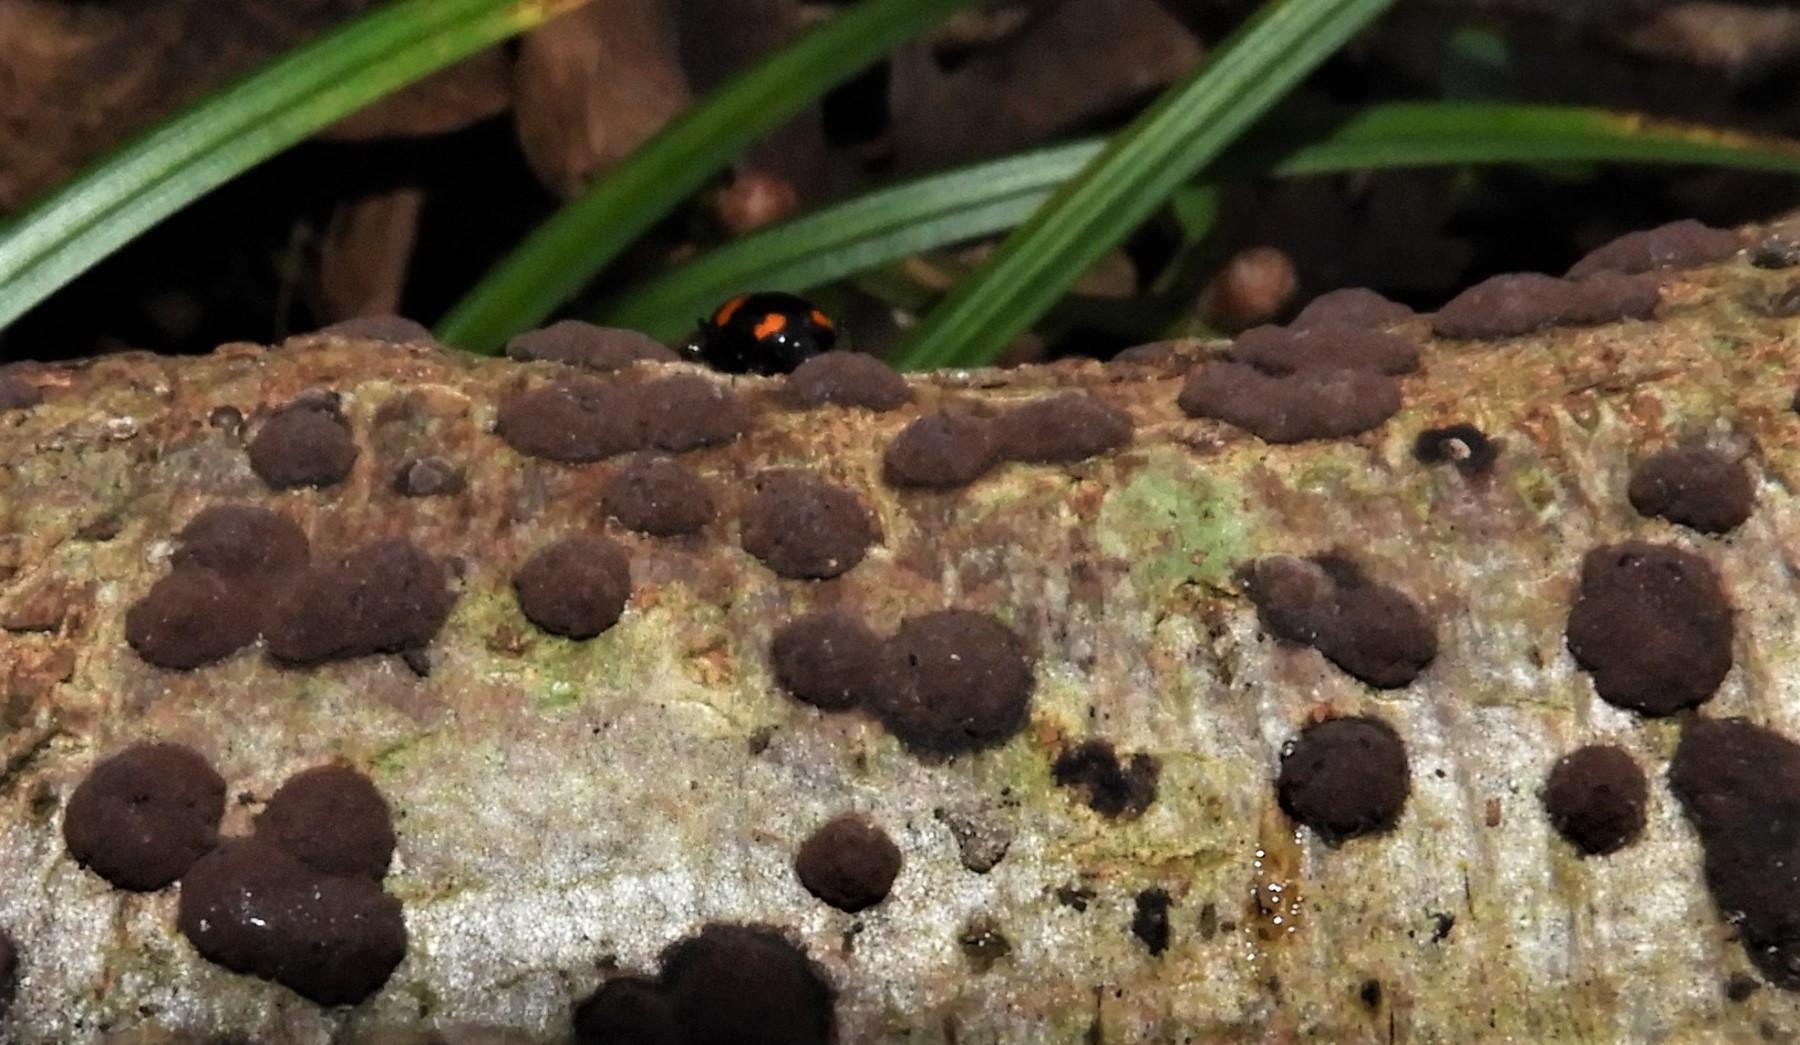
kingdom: Fungi
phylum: Ascomycota
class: Sordariomycetes
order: Xylariales
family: Hypoxylaceae
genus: Hypoxylon
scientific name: Hypoxylon fuscum
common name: kegleformet kulbær
